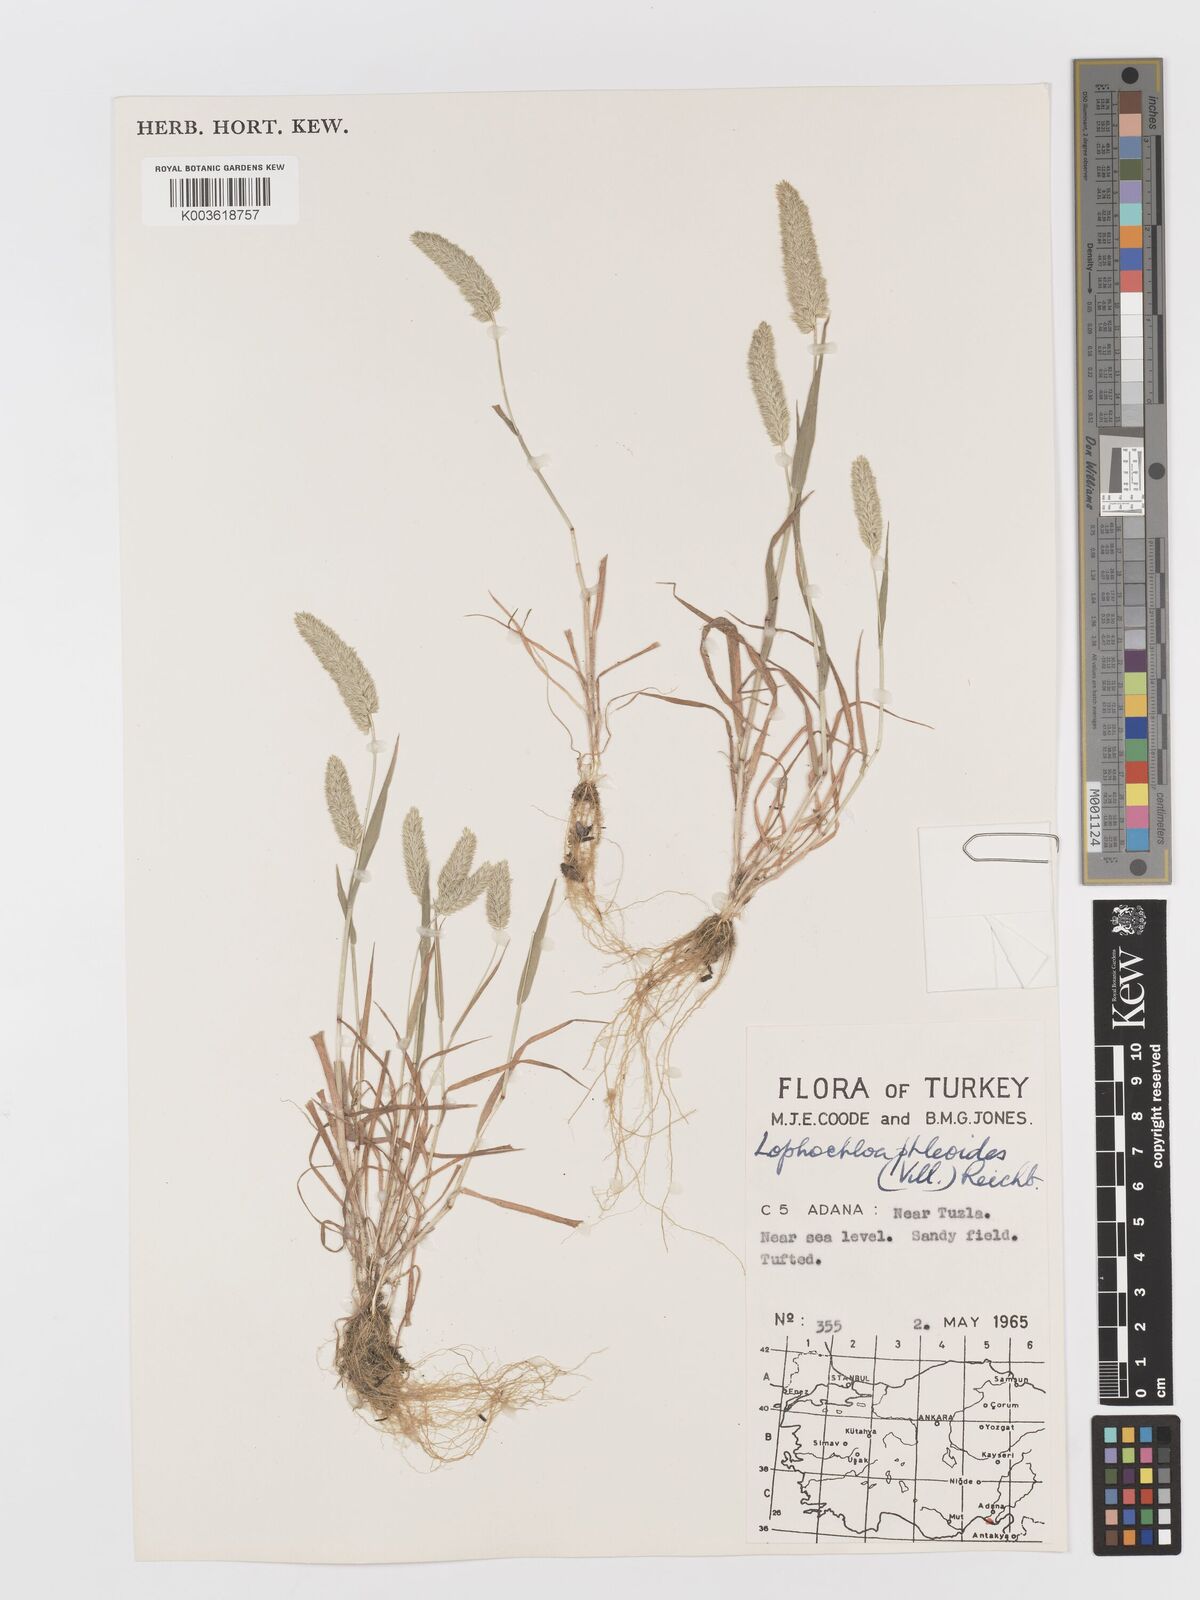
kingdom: Plantae
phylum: Tracheophyta
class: Liliopsida
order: Poales
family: Poaceae
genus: Rostraria
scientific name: Rostraria cristata
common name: Mediterranean hair-grass
